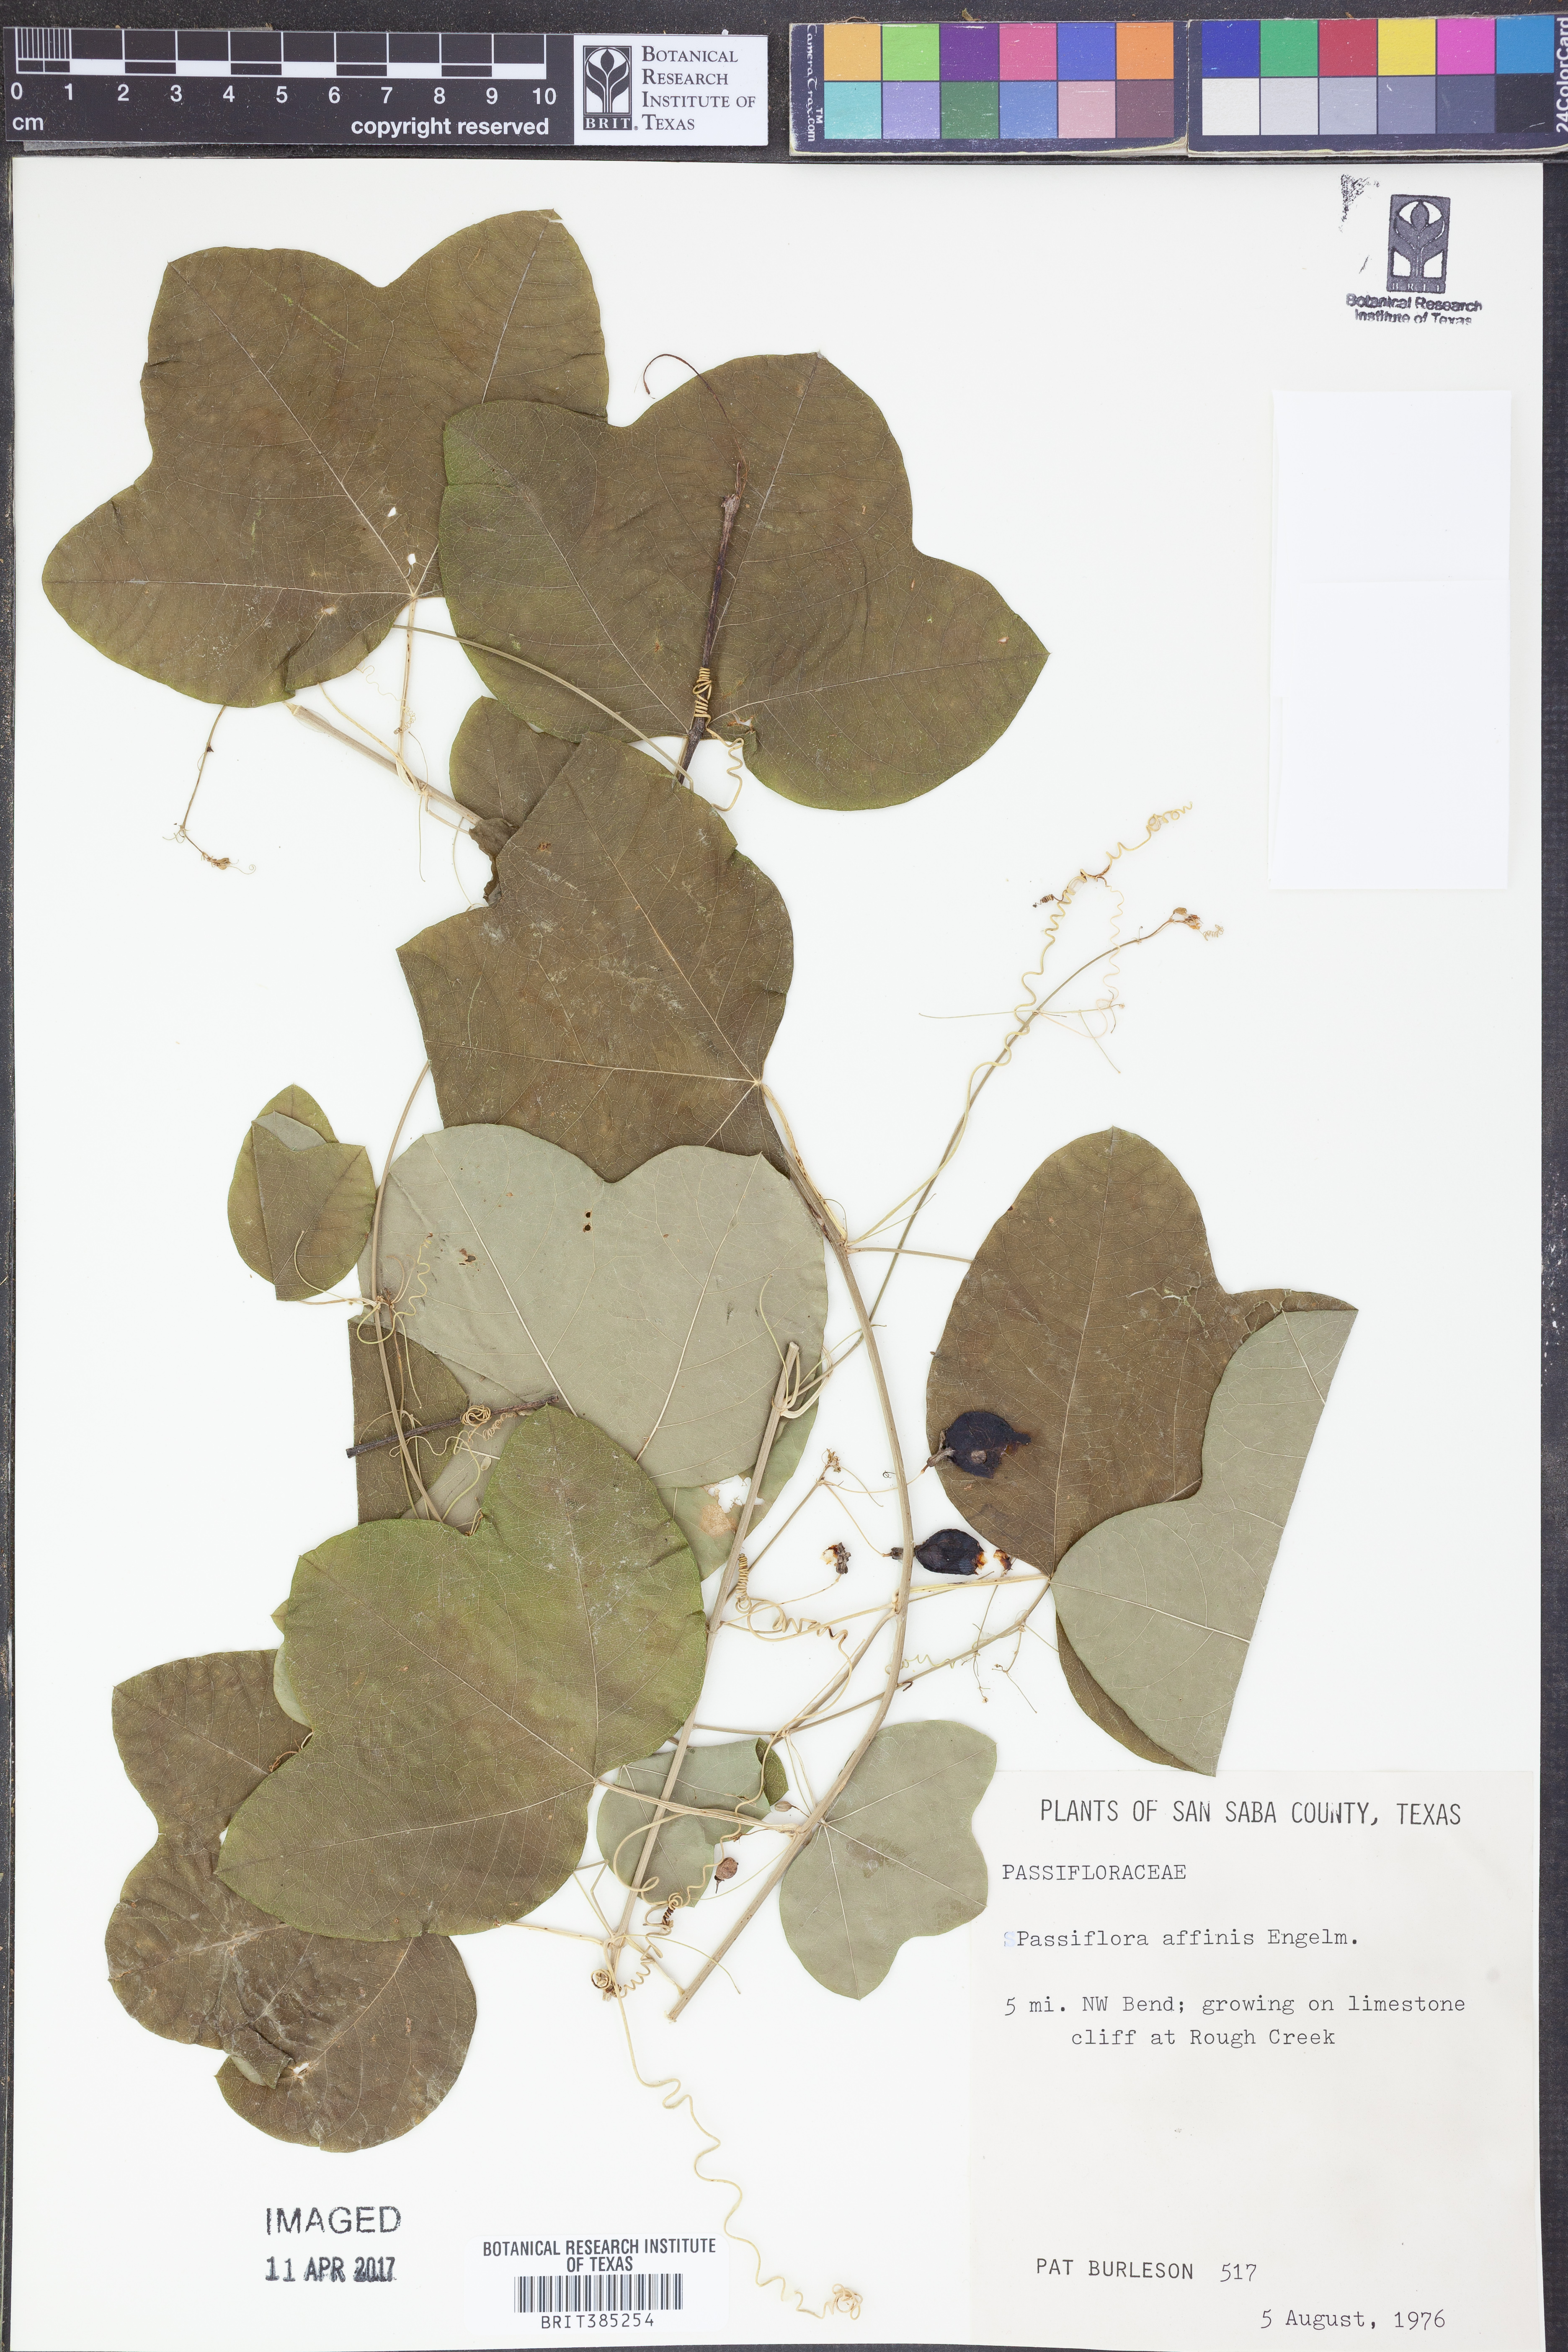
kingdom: Plantae
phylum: Tracheophyta
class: Magnoliopsida
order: Malpighiales
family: Passifloraceae
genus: Passiflora
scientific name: Passiflora affinis
